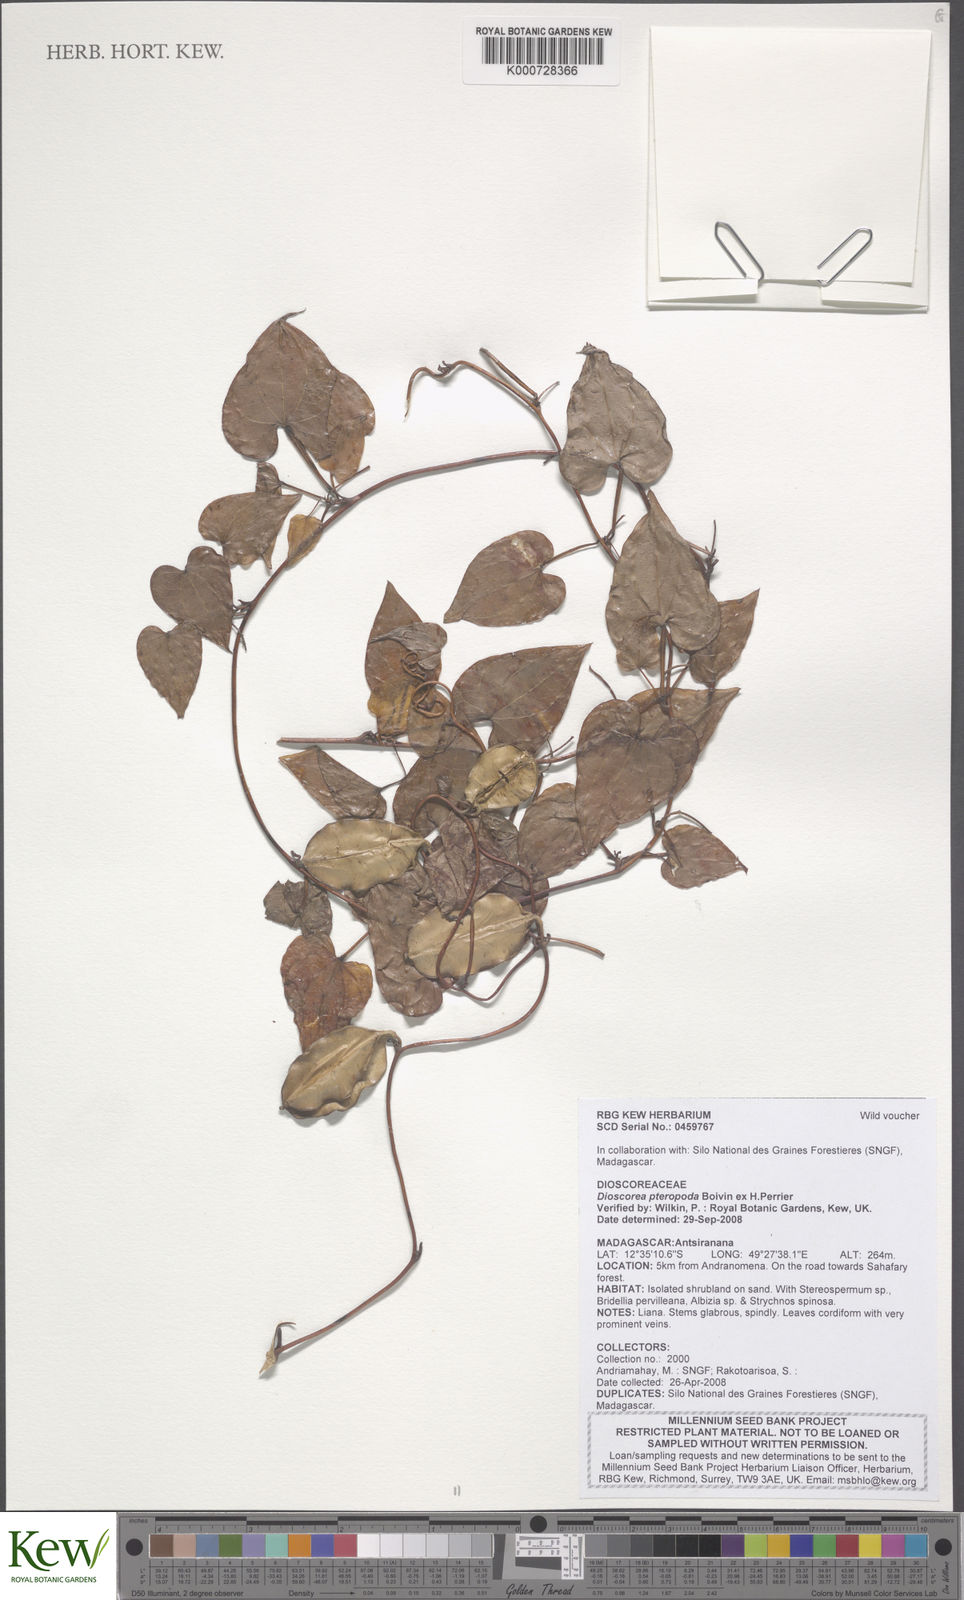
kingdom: Plantae
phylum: Tracheophyta
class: Liliopsida
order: Dioscoreales
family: Dioscoreaceae
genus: Dioscorea
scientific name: Dioscorea pteropoda
